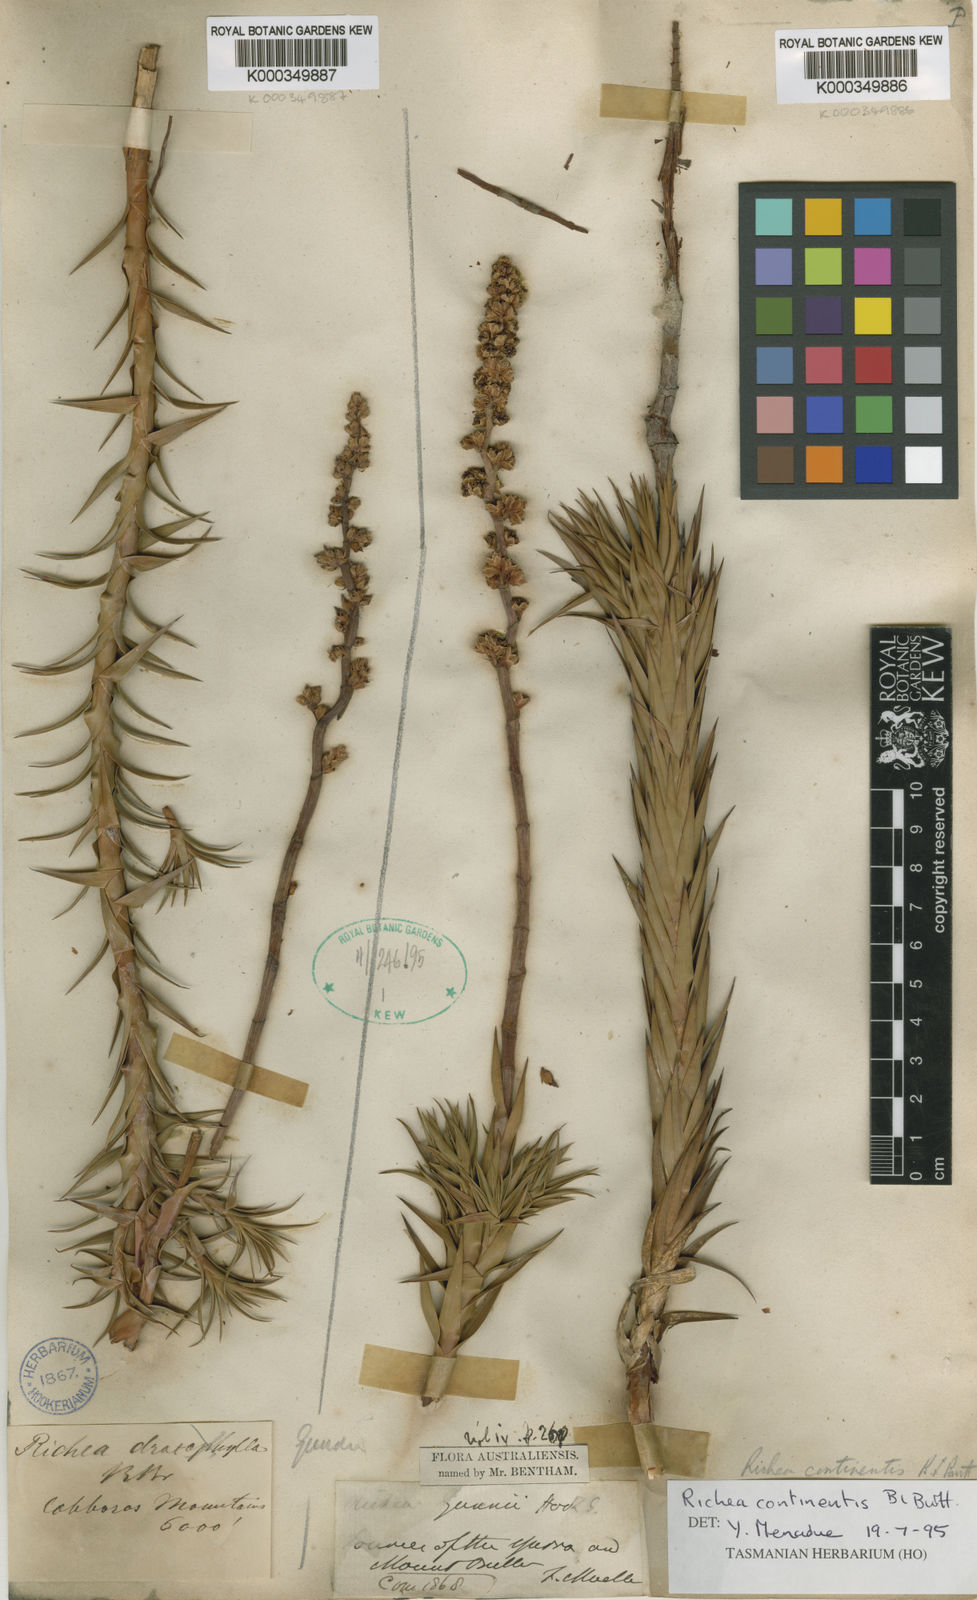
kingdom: Plantae
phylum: Tracheophyta
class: Magnoliopsida
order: Ericales
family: Ericaceae
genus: Dracophyllum
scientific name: Dracophyllum continentis
